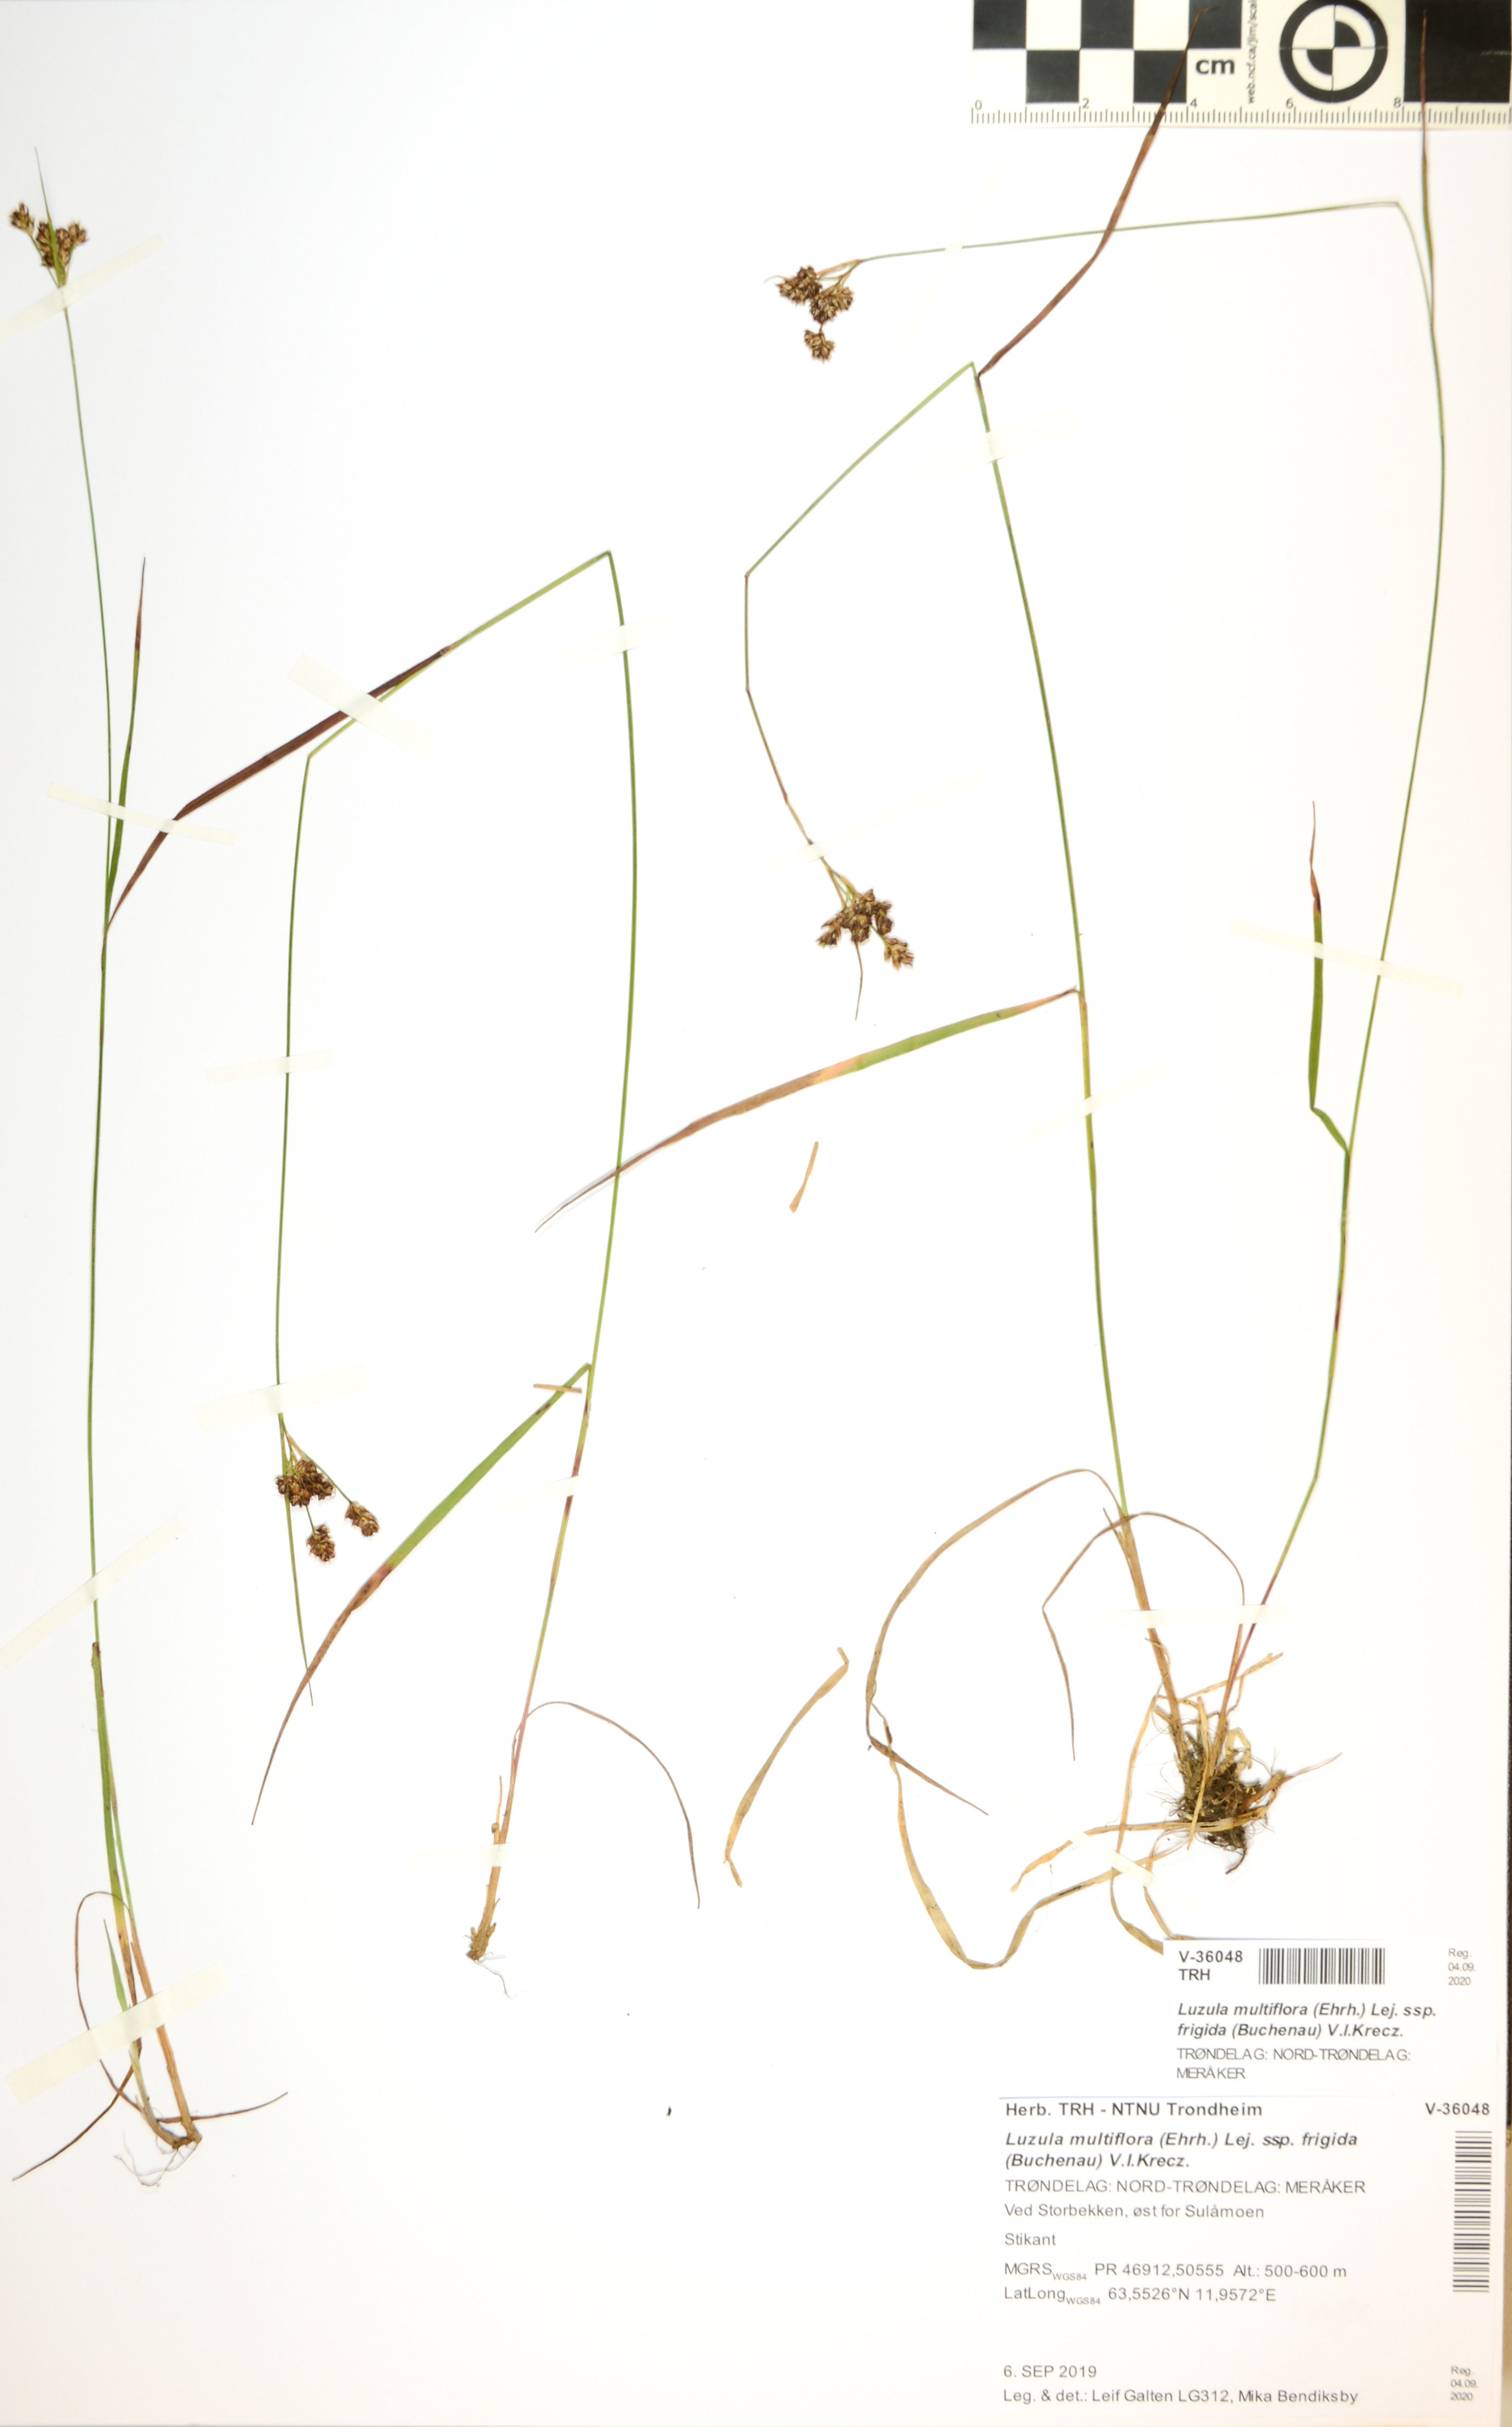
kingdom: Plantae
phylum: Tracheophyta
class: Liliopsida
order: Poales
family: Juncaceae
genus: Luzula
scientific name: Luzula multiflora
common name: Heath wood-rush
